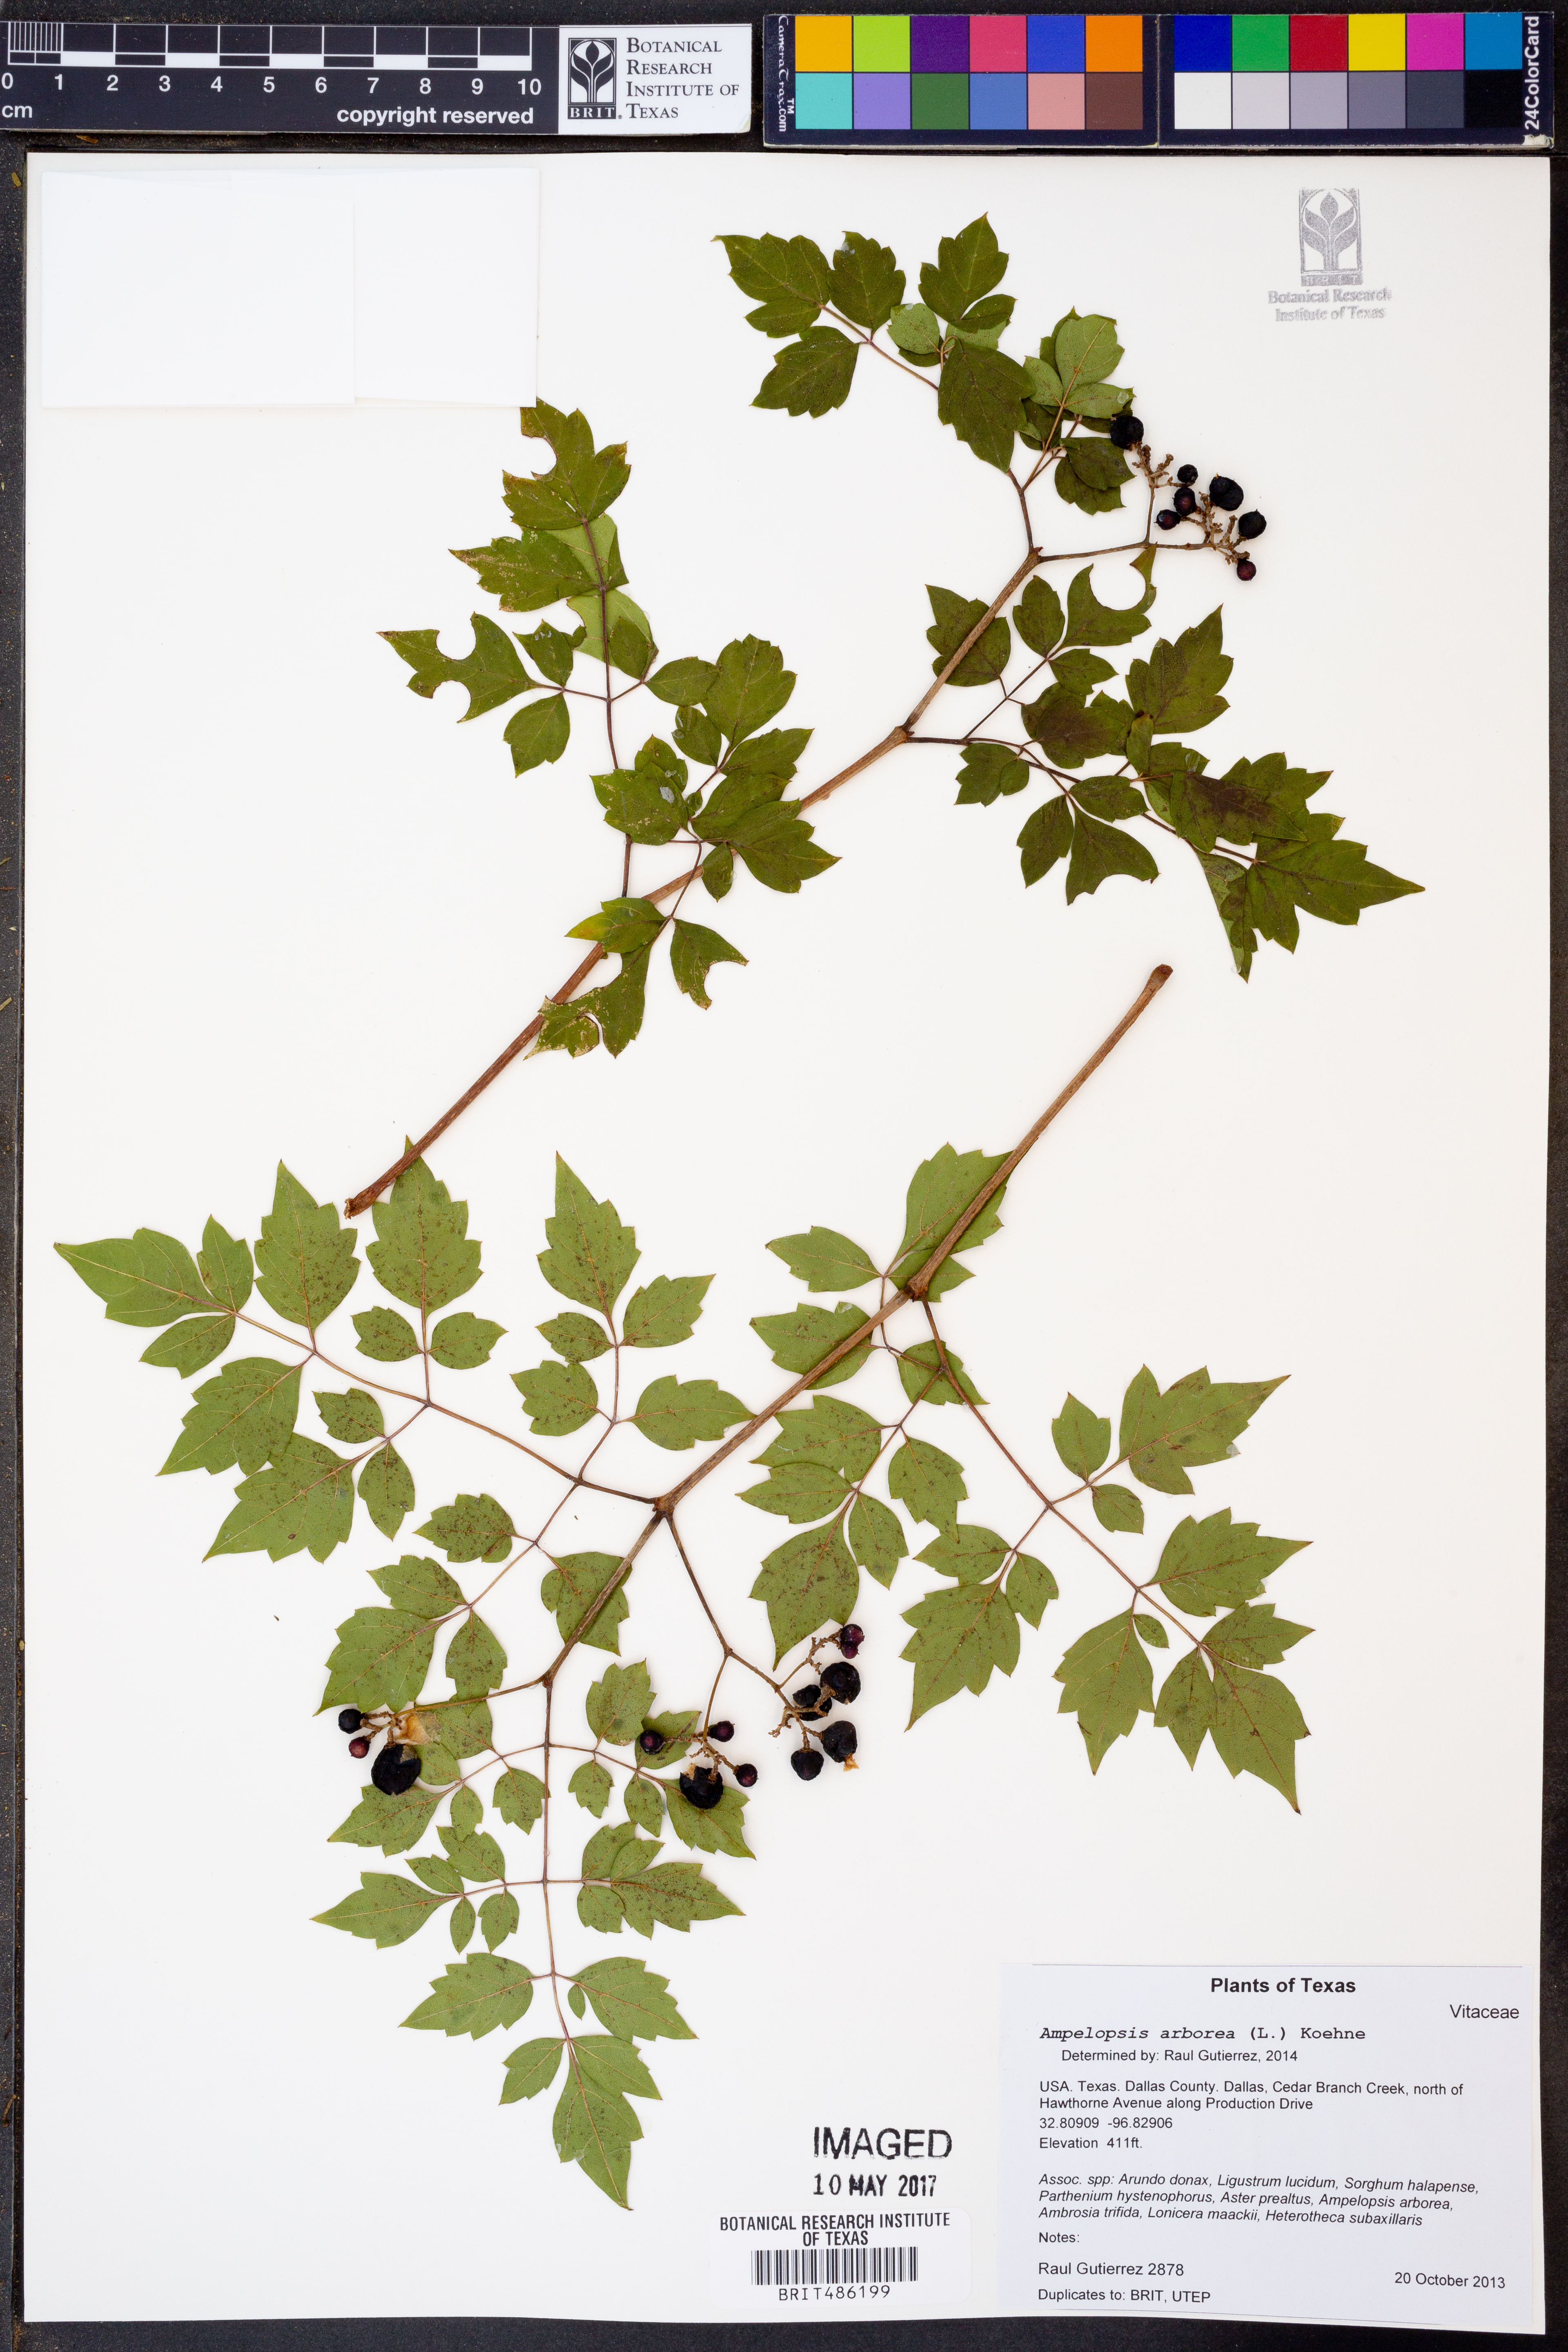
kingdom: Plantae
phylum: Tracheophyta
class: Magnoliopsida
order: Vitales
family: Vitaceae
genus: Nekemias
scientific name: Nekemias arborea
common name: Peppervine
